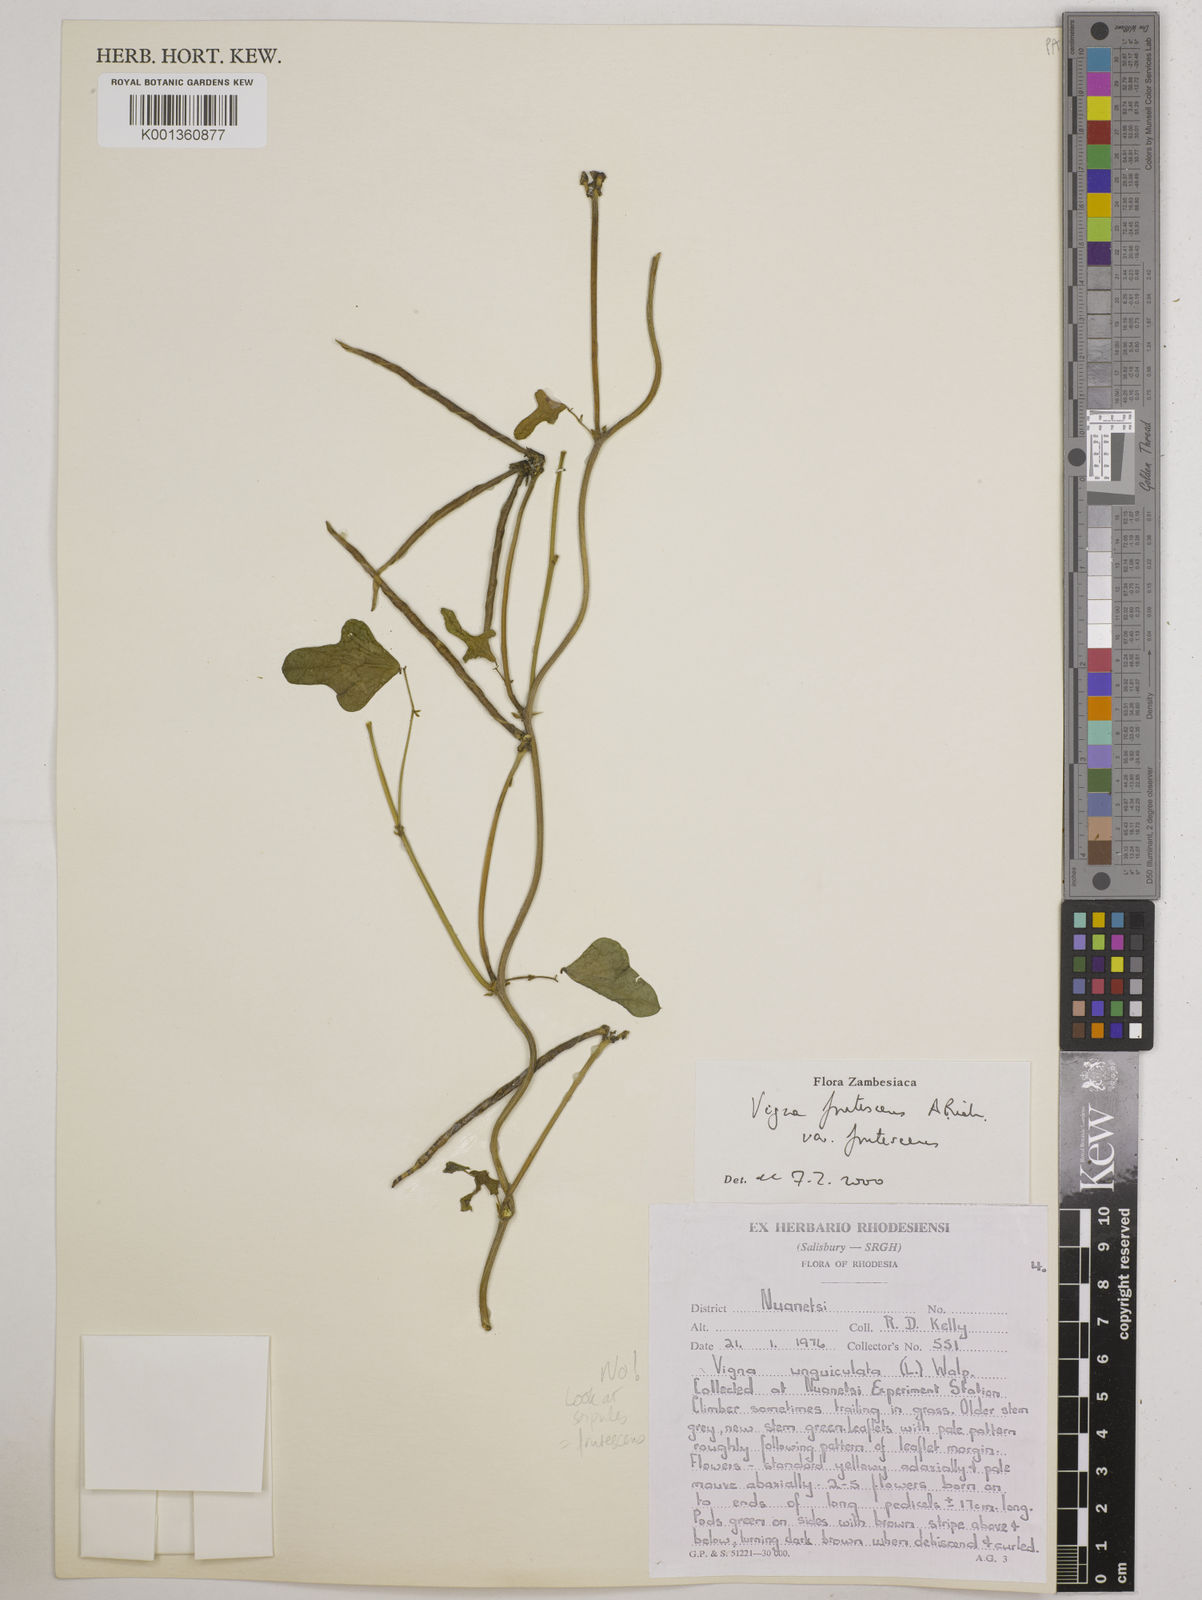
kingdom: Plantae
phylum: Tracheophyta
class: Magnoliopsida
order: Fabales
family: Fabaceae
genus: Vigna
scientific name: Vigna
